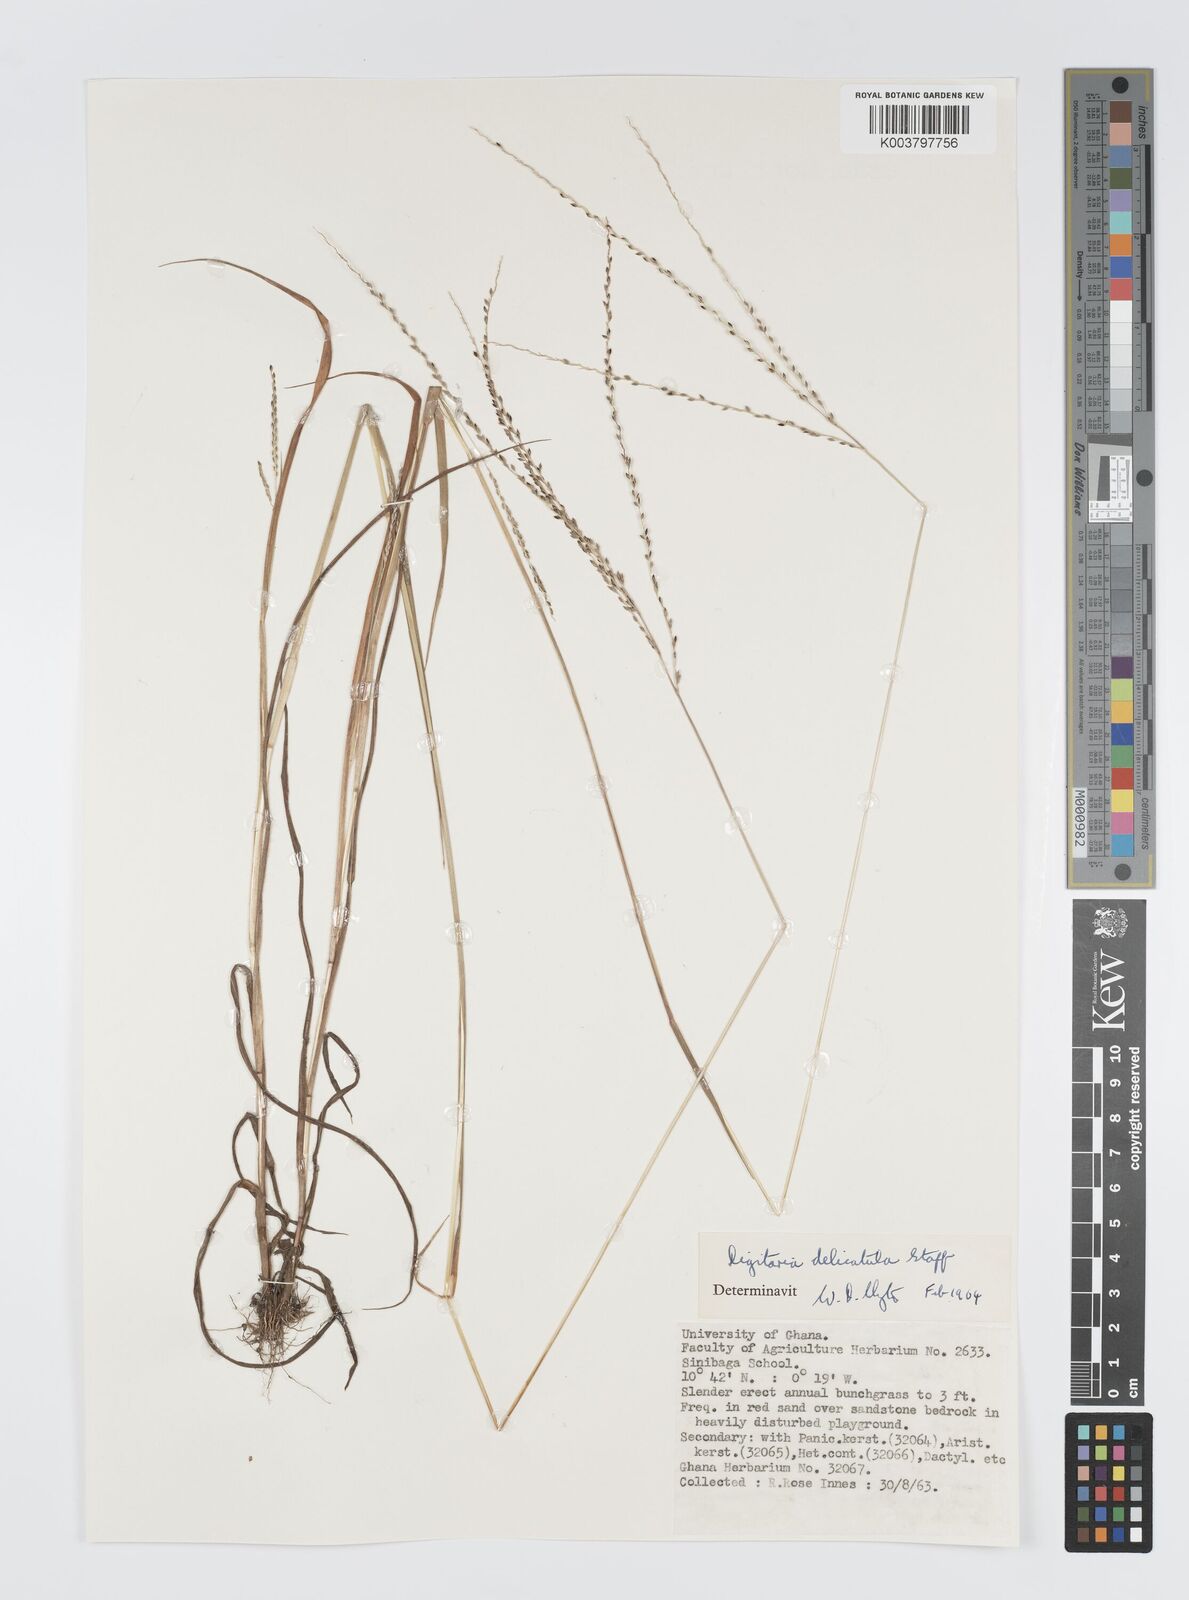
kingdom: Plantae
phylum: Tracheophyta
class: Liliopsida
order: Poales
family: Poaceae
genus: Digitaria
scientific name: Digitaria delicatula
